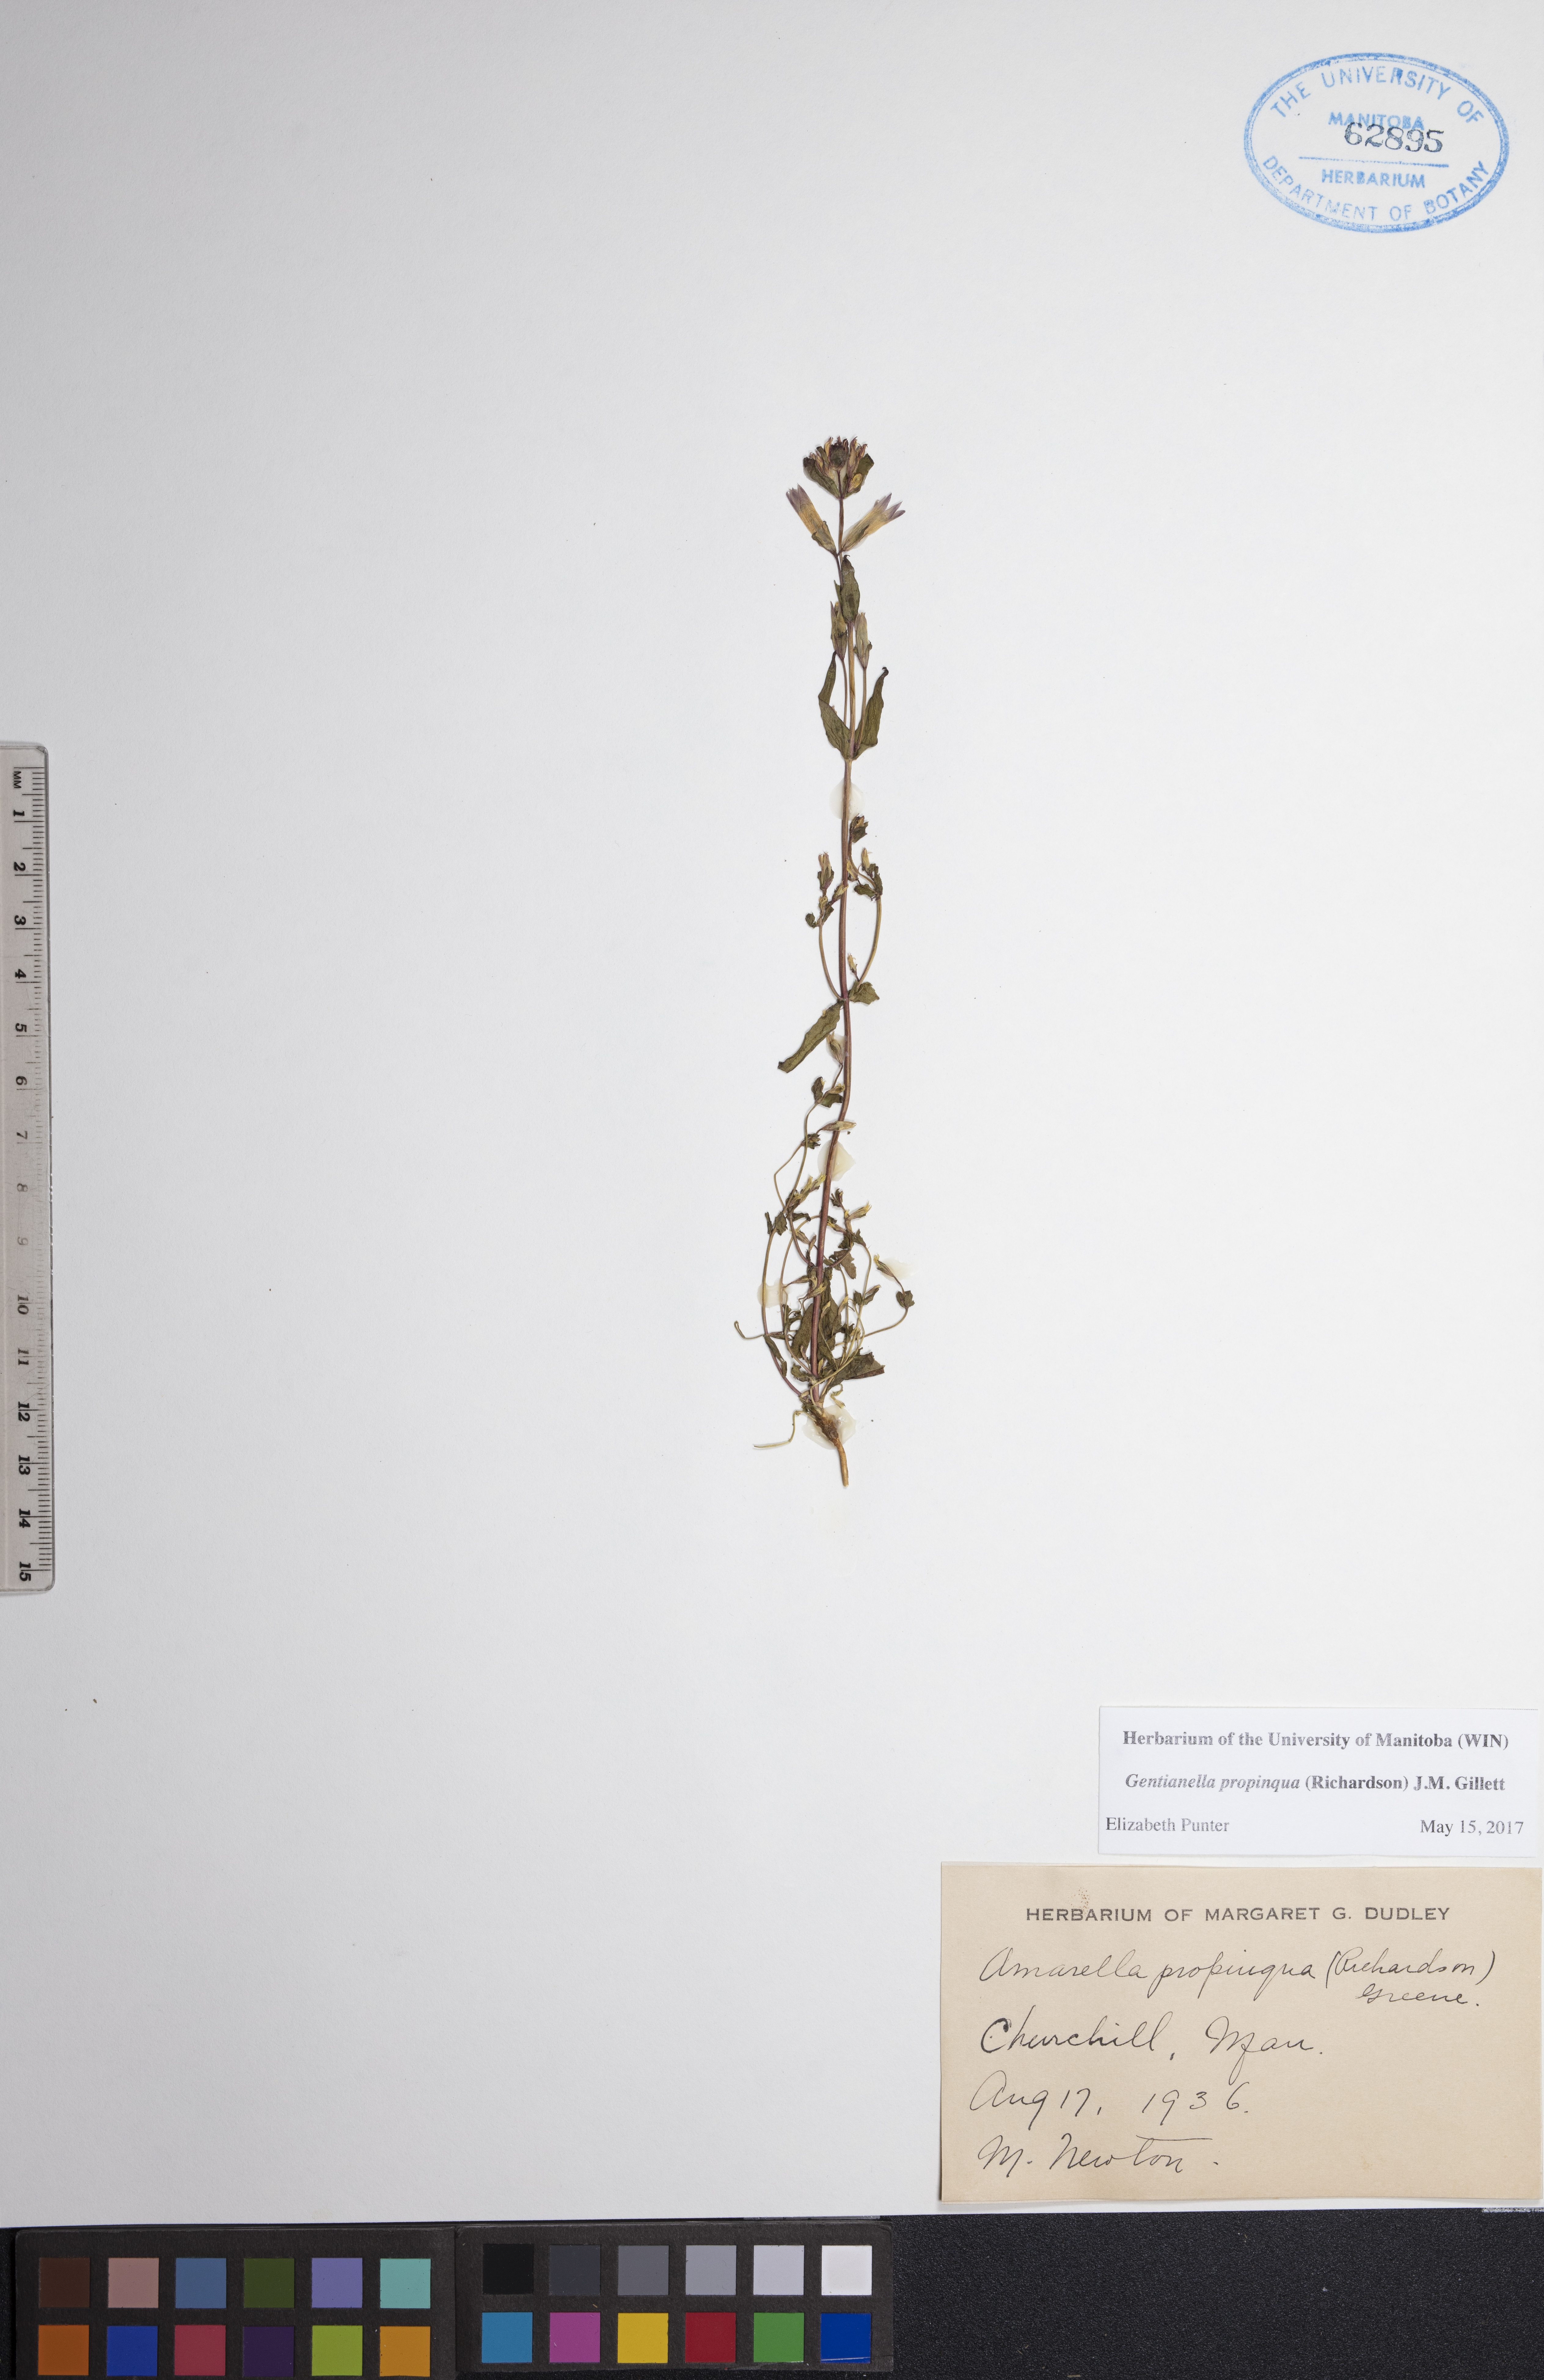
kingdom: Plantae
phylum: Tracheophyta
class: Magnoliopsida
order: Gentianales
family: Gentianaceae
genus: Gentianella
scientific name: Gentianella propinqua
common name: Four-parted dwarf-gentian
